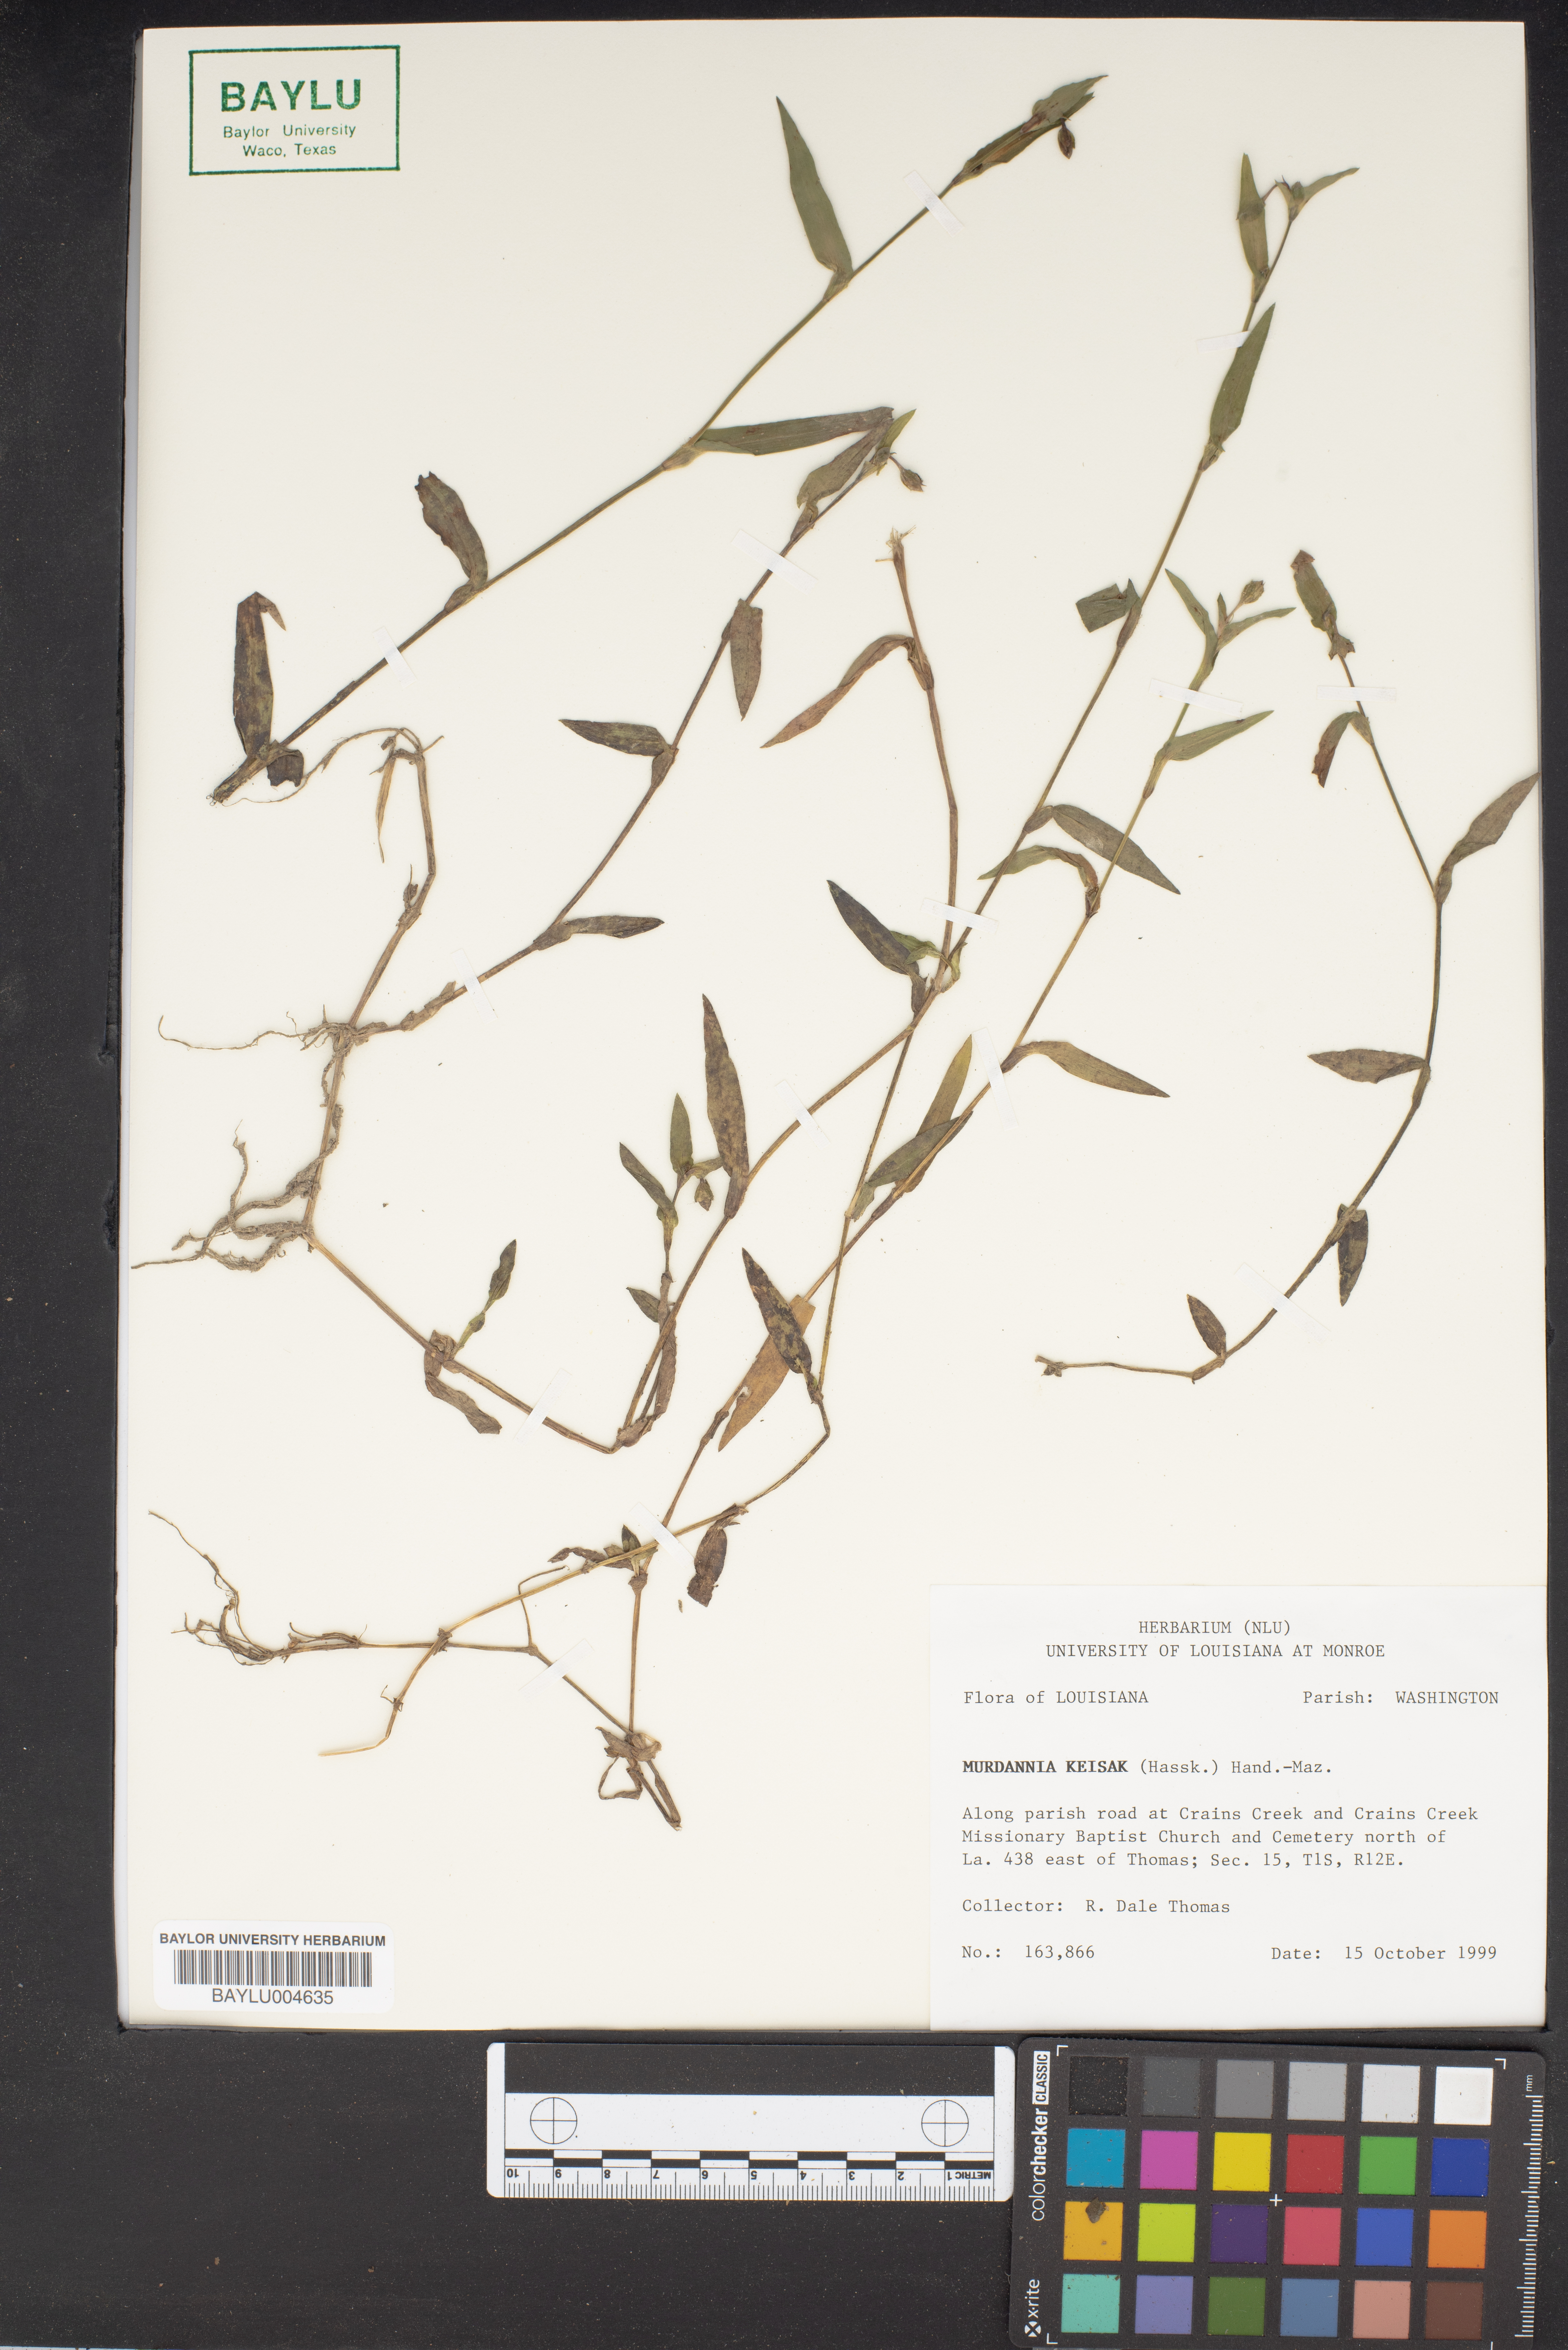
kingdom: Plantae
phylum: Tracheophyta
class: Liliopsida
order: Commelinales
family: Commelinaceae
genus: Murdannia
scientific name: Murdannia keisak
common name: Wartremoving herb
